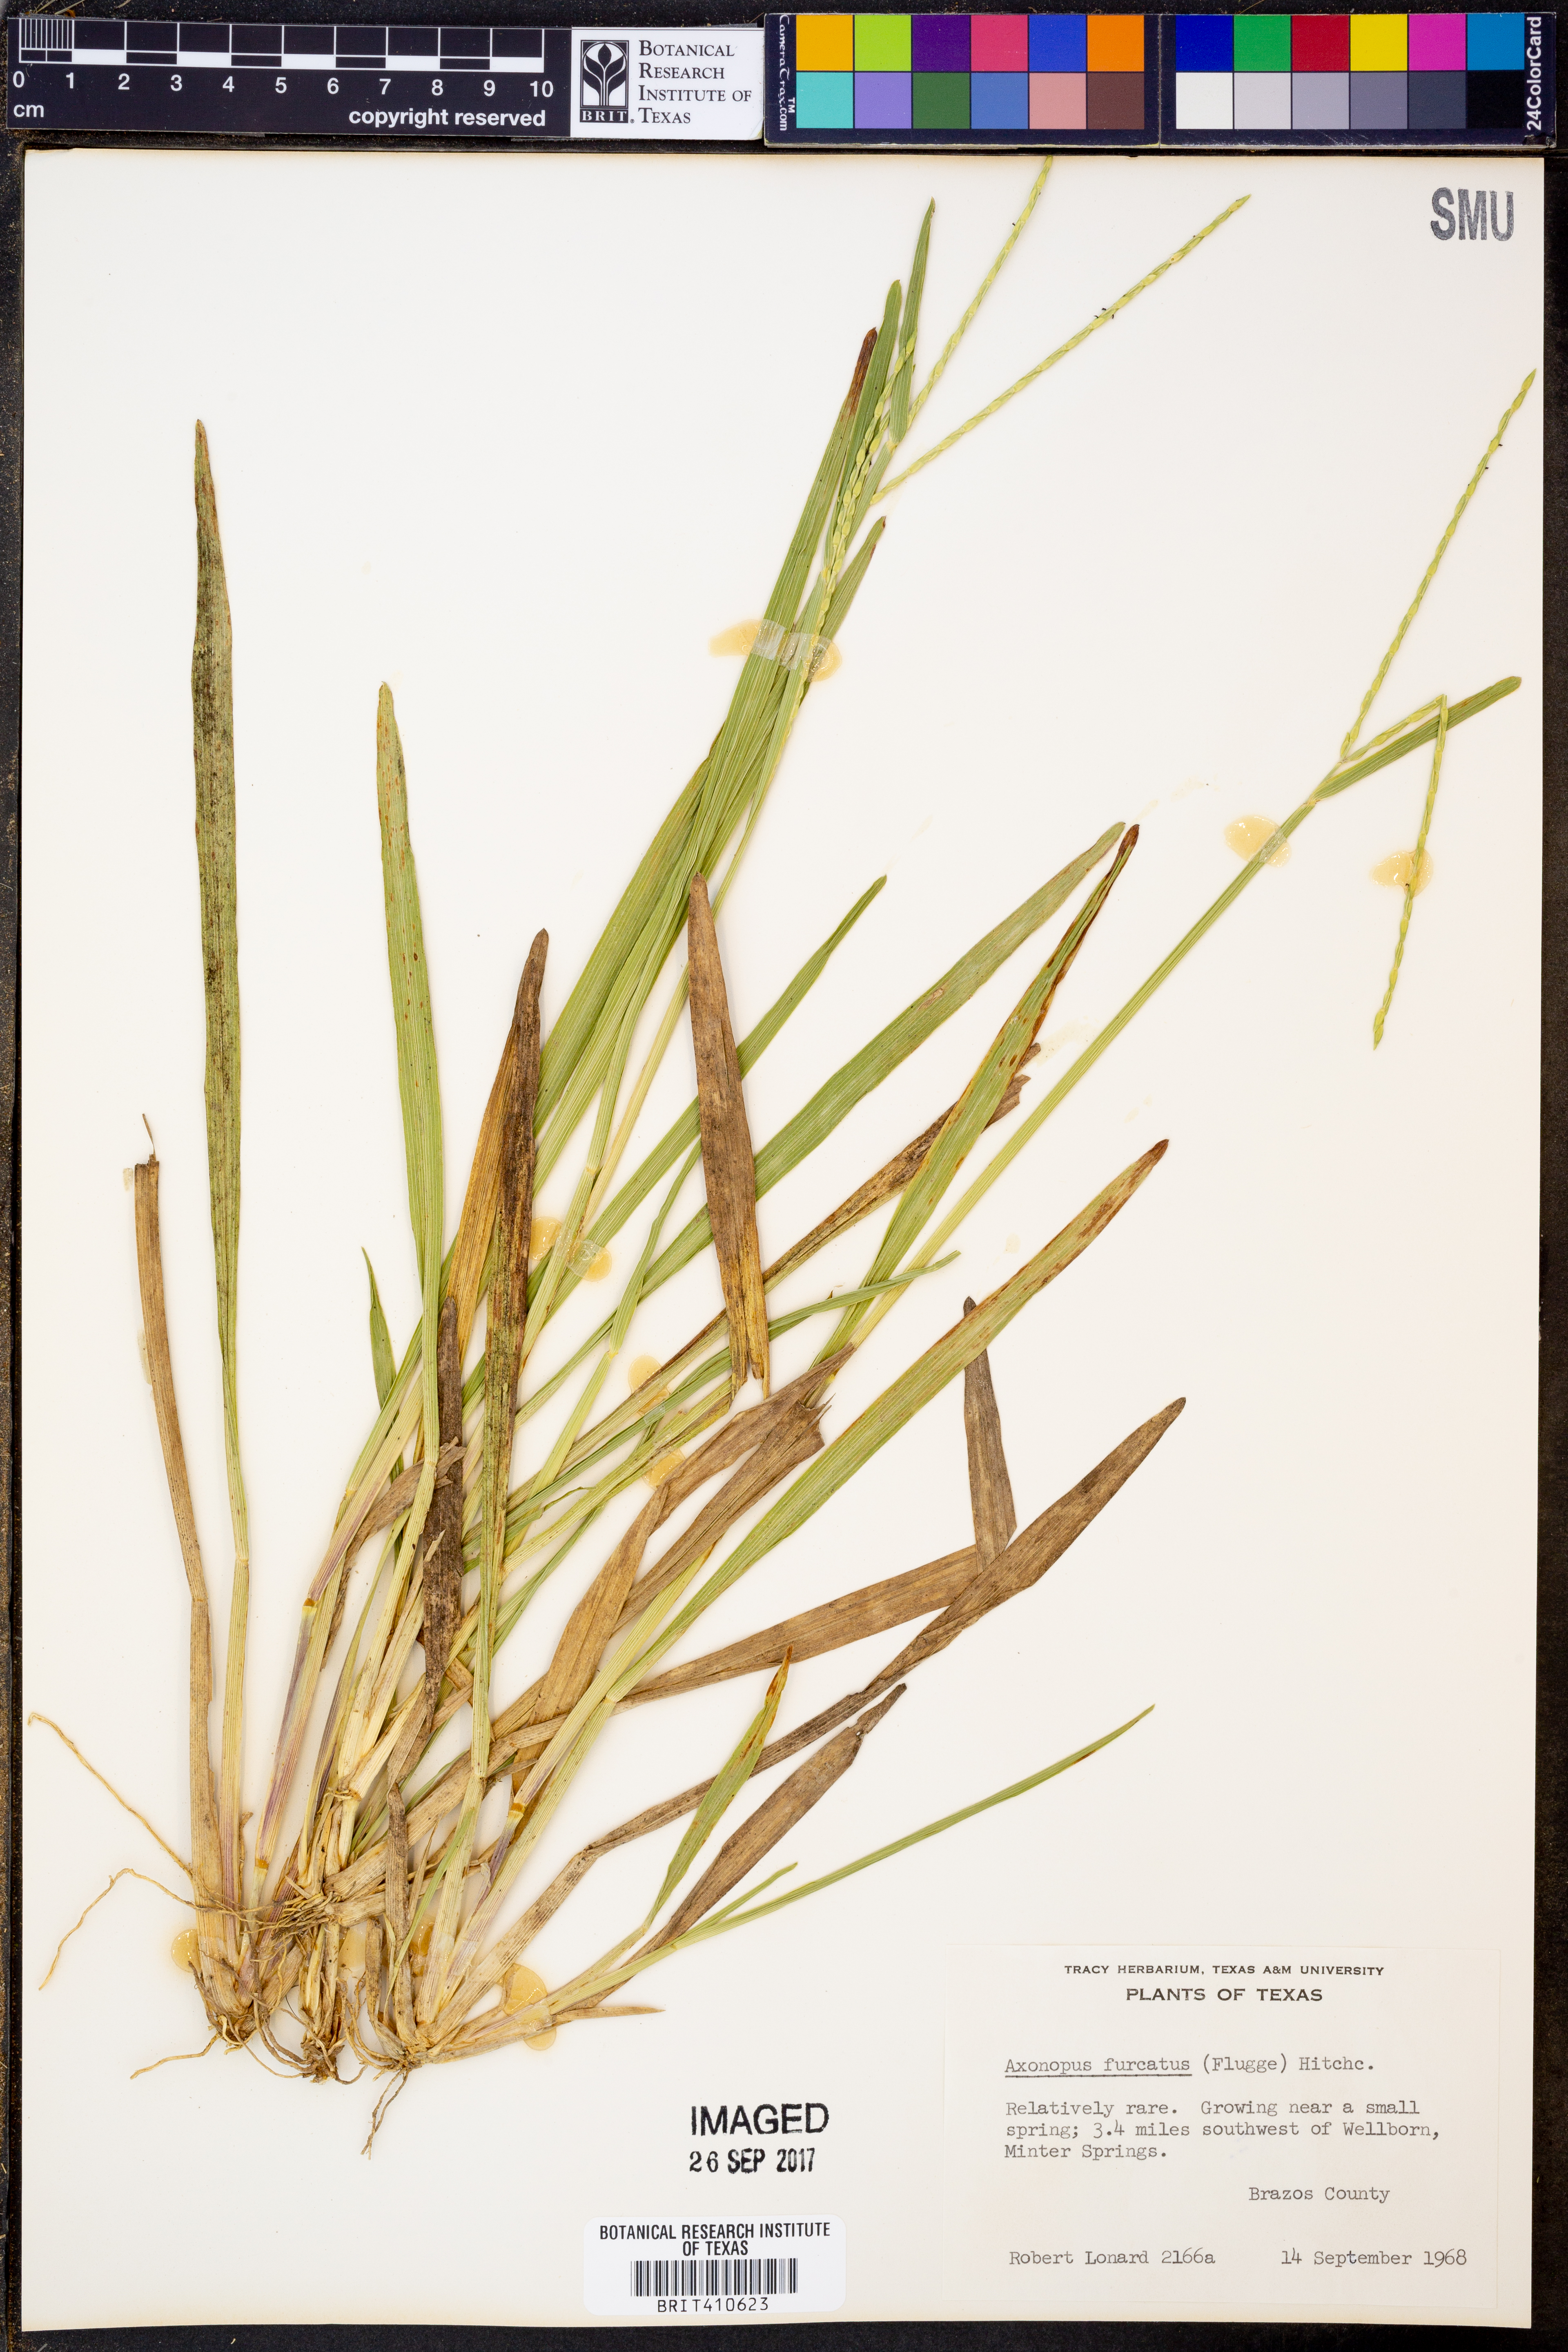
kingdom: Plantae
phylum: Tracheophyta
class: Liliopsida
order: Poales
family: Poaceae
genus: Axonopus
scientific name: Axonopus furcatus
